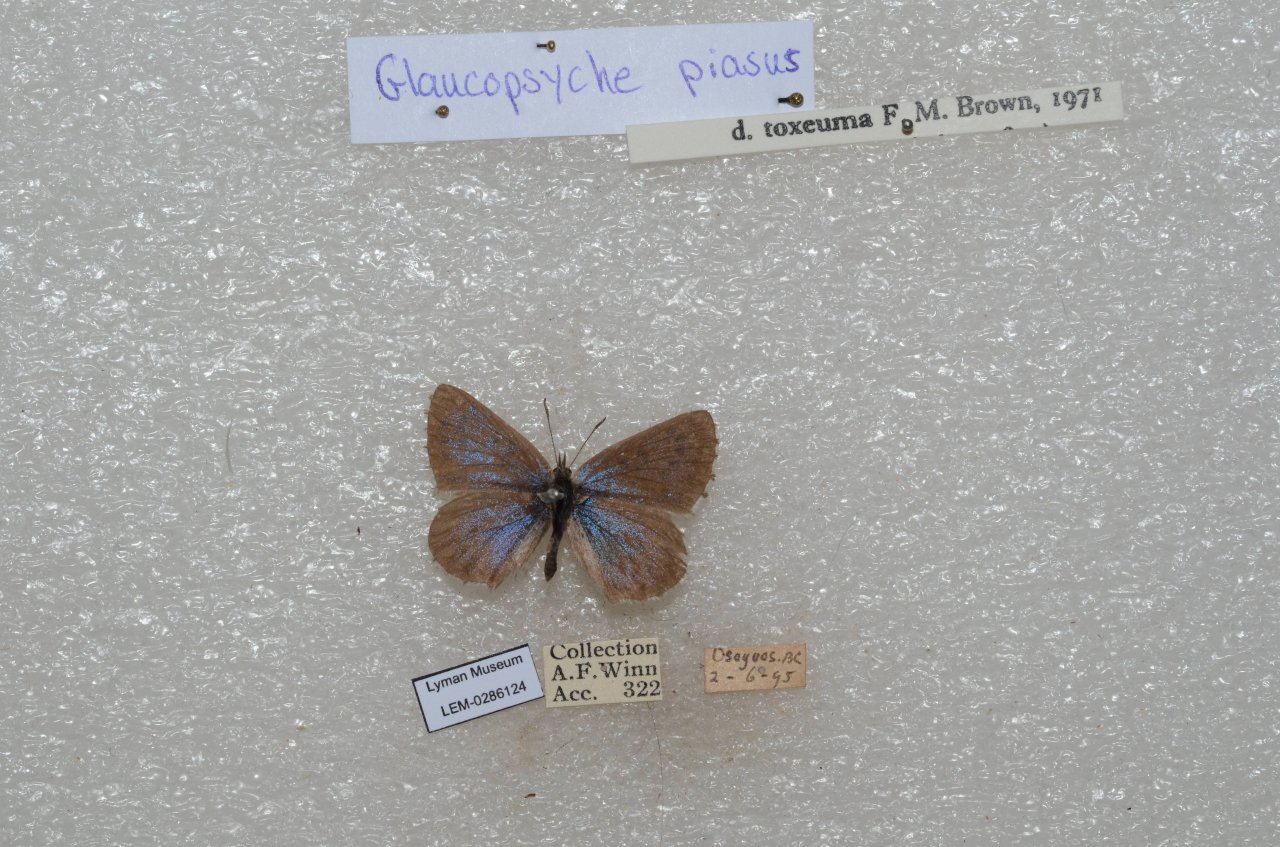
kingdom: Animalia
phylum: Arthropoda
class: Insecta
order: Lepidoptera
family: Lycaenidae
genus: Glaucopsyche
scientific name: Glaucopsyche piasus
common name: Arrowhead Blue
